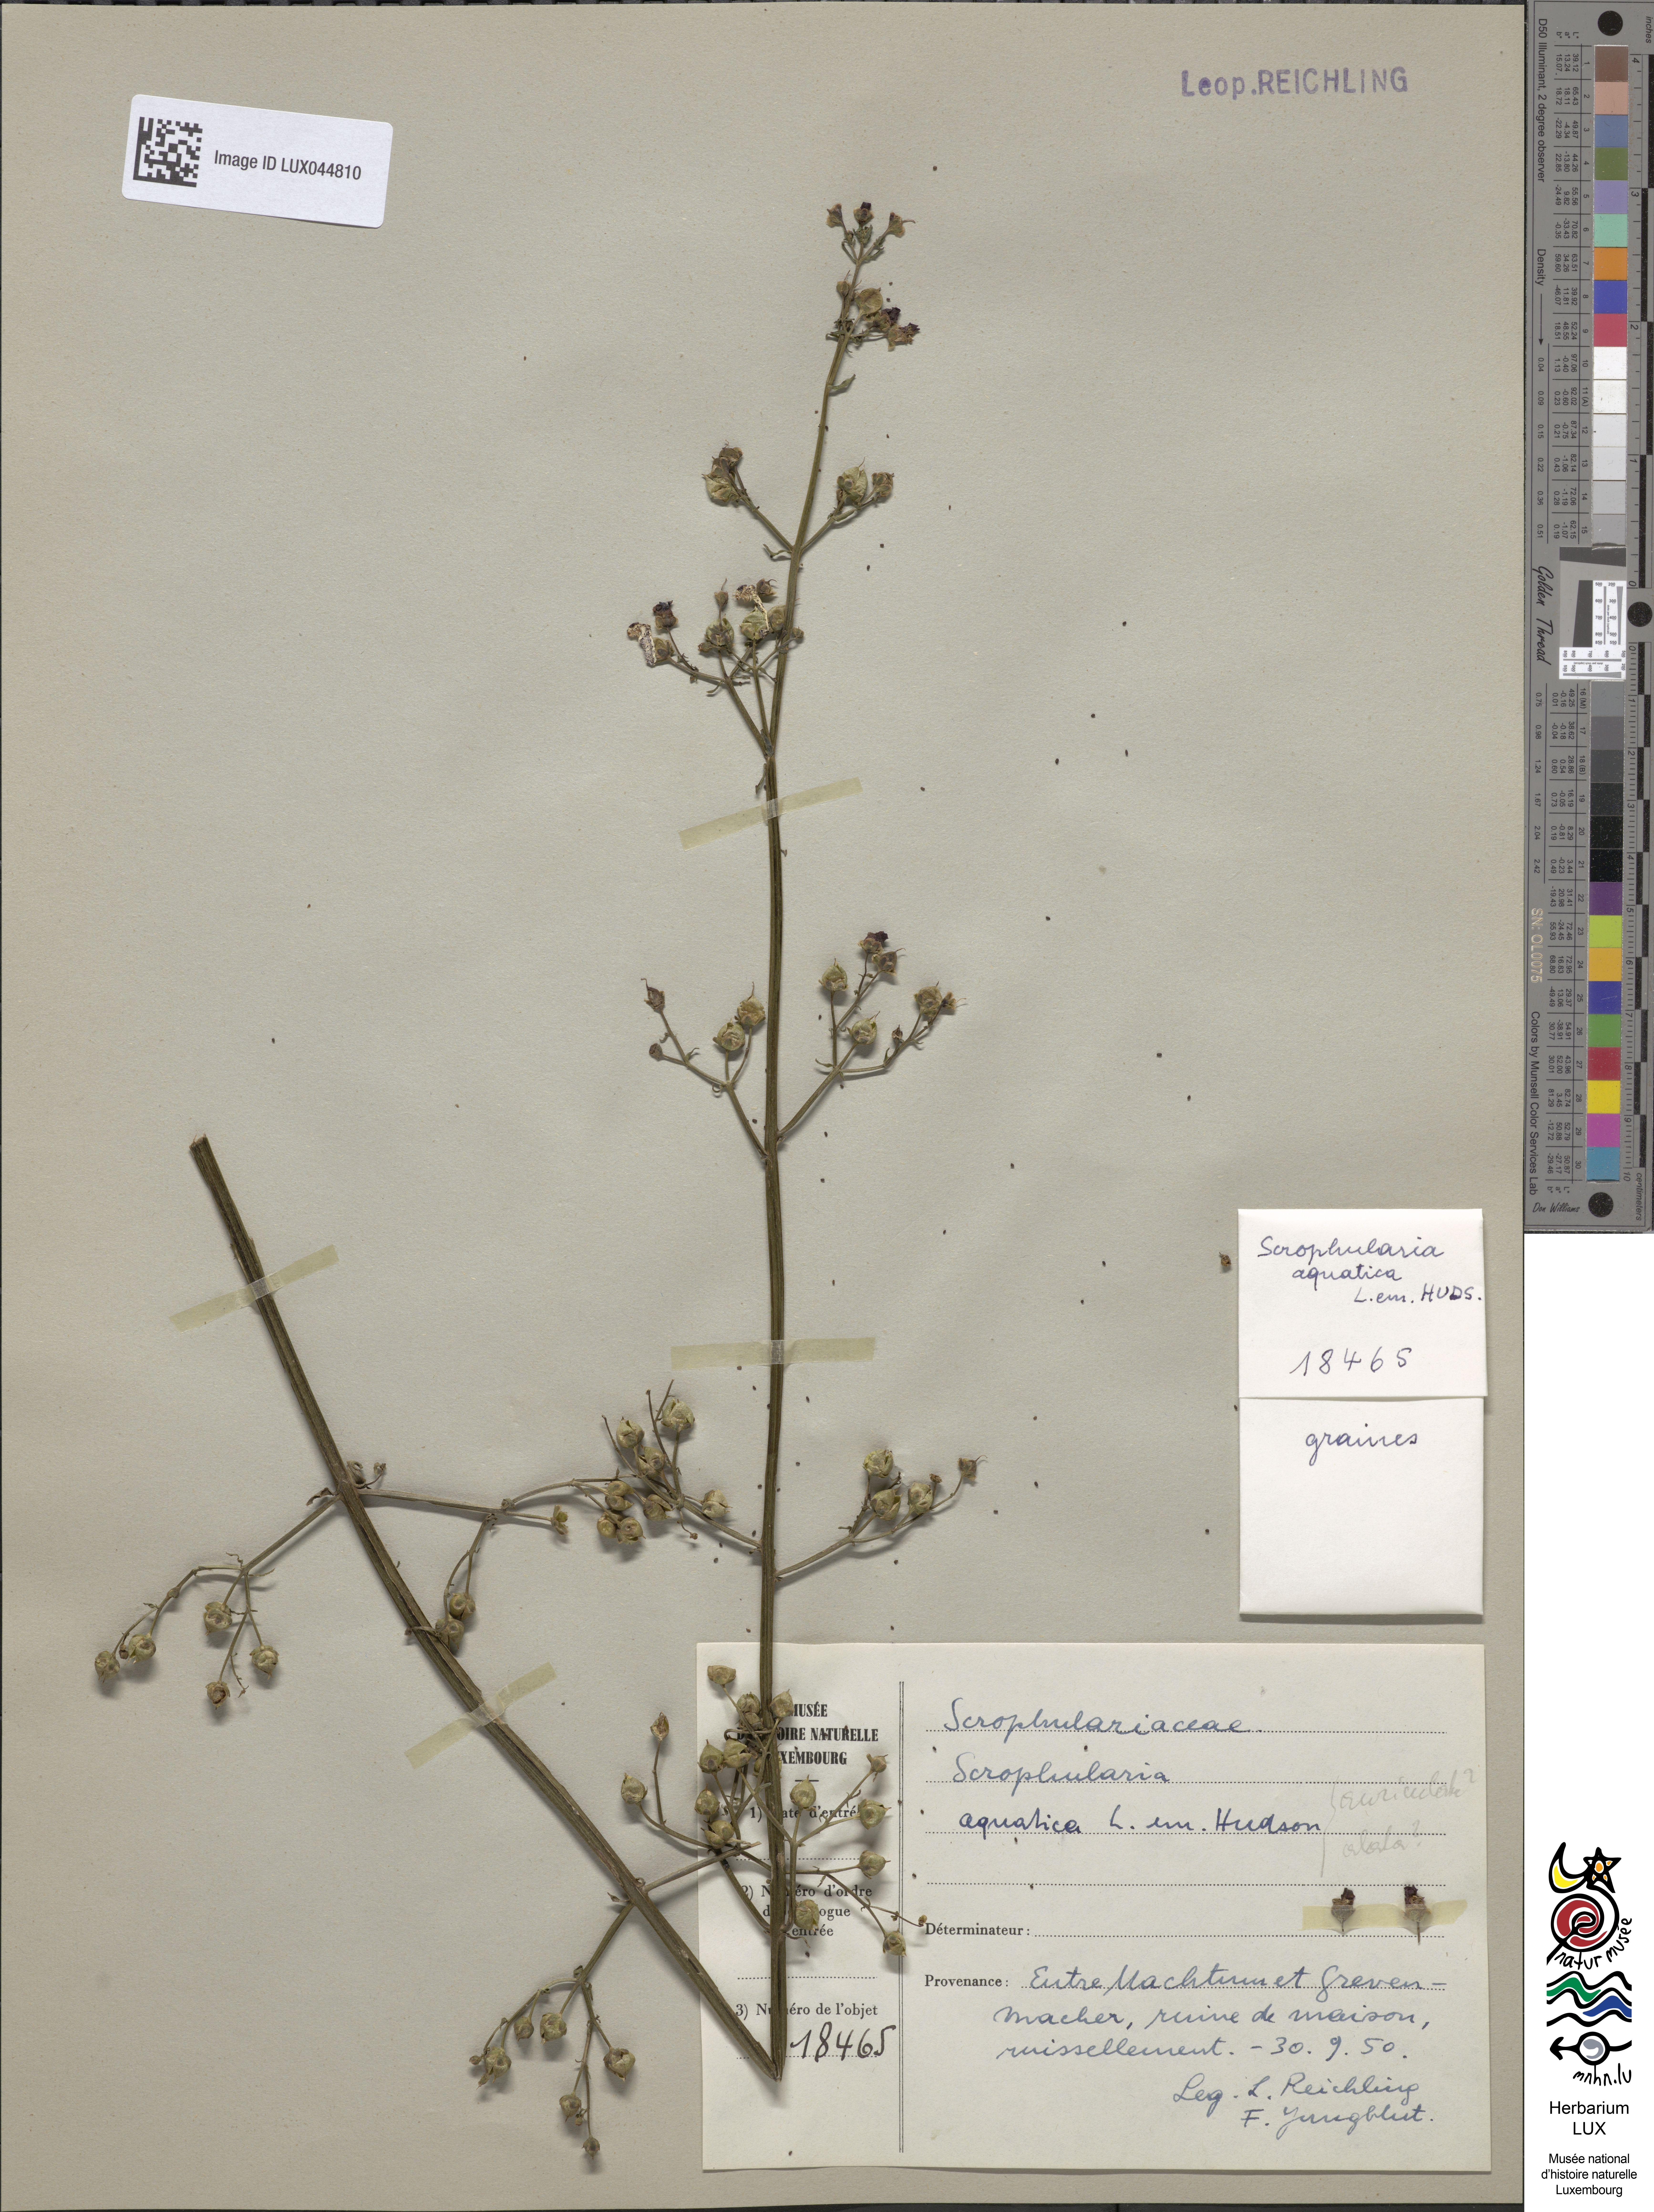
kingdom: Plantae
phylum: Tracheophyta
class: Magnoliopsida
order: Lamiales
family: Scrophulariaceae
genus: Scrophularia
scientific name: Scrophularia auriculata
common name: Water betony
